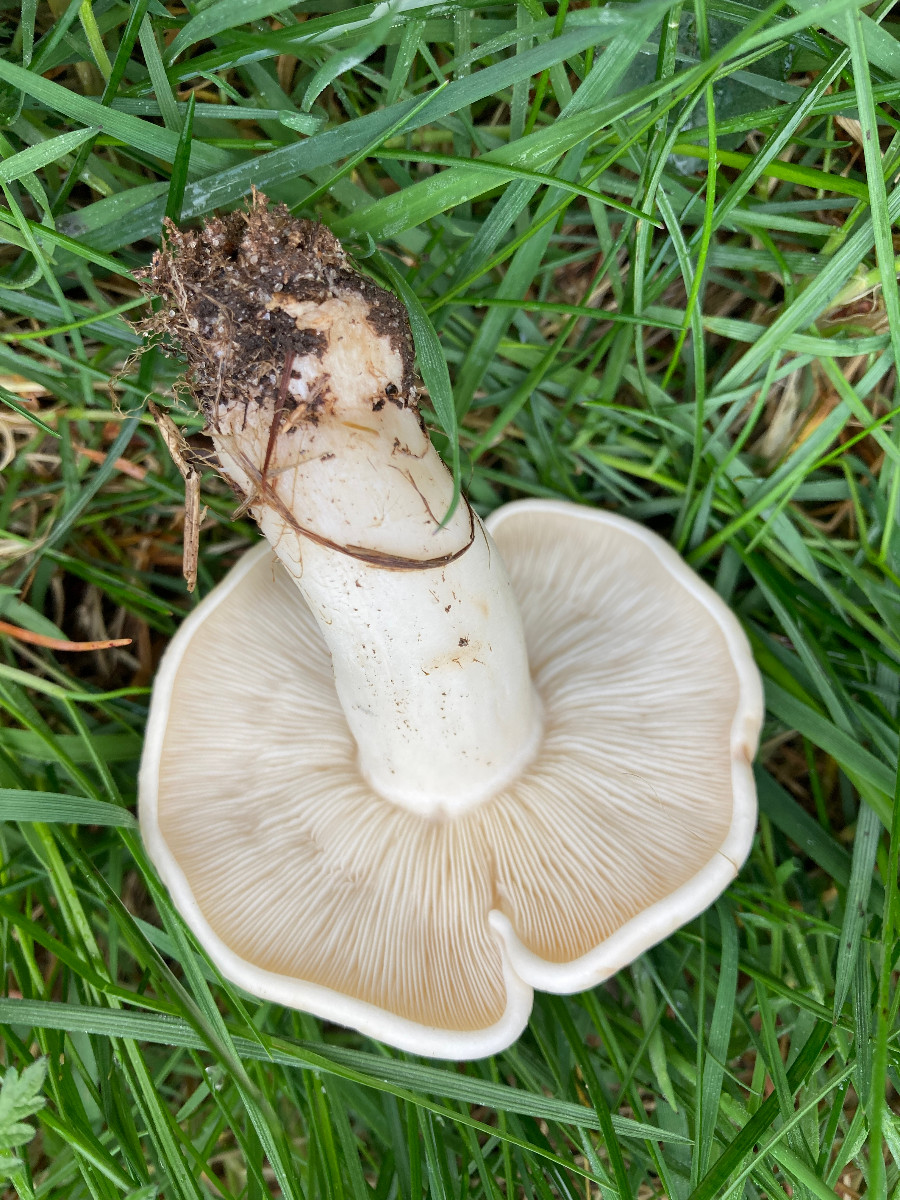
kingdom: Fungi
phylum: Basidiomycota
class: Agaricomycetes
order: Agaricales
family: Lyophyllaceae
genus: Calocybe
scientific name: Calocybe gambosa
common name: vårmusseron
